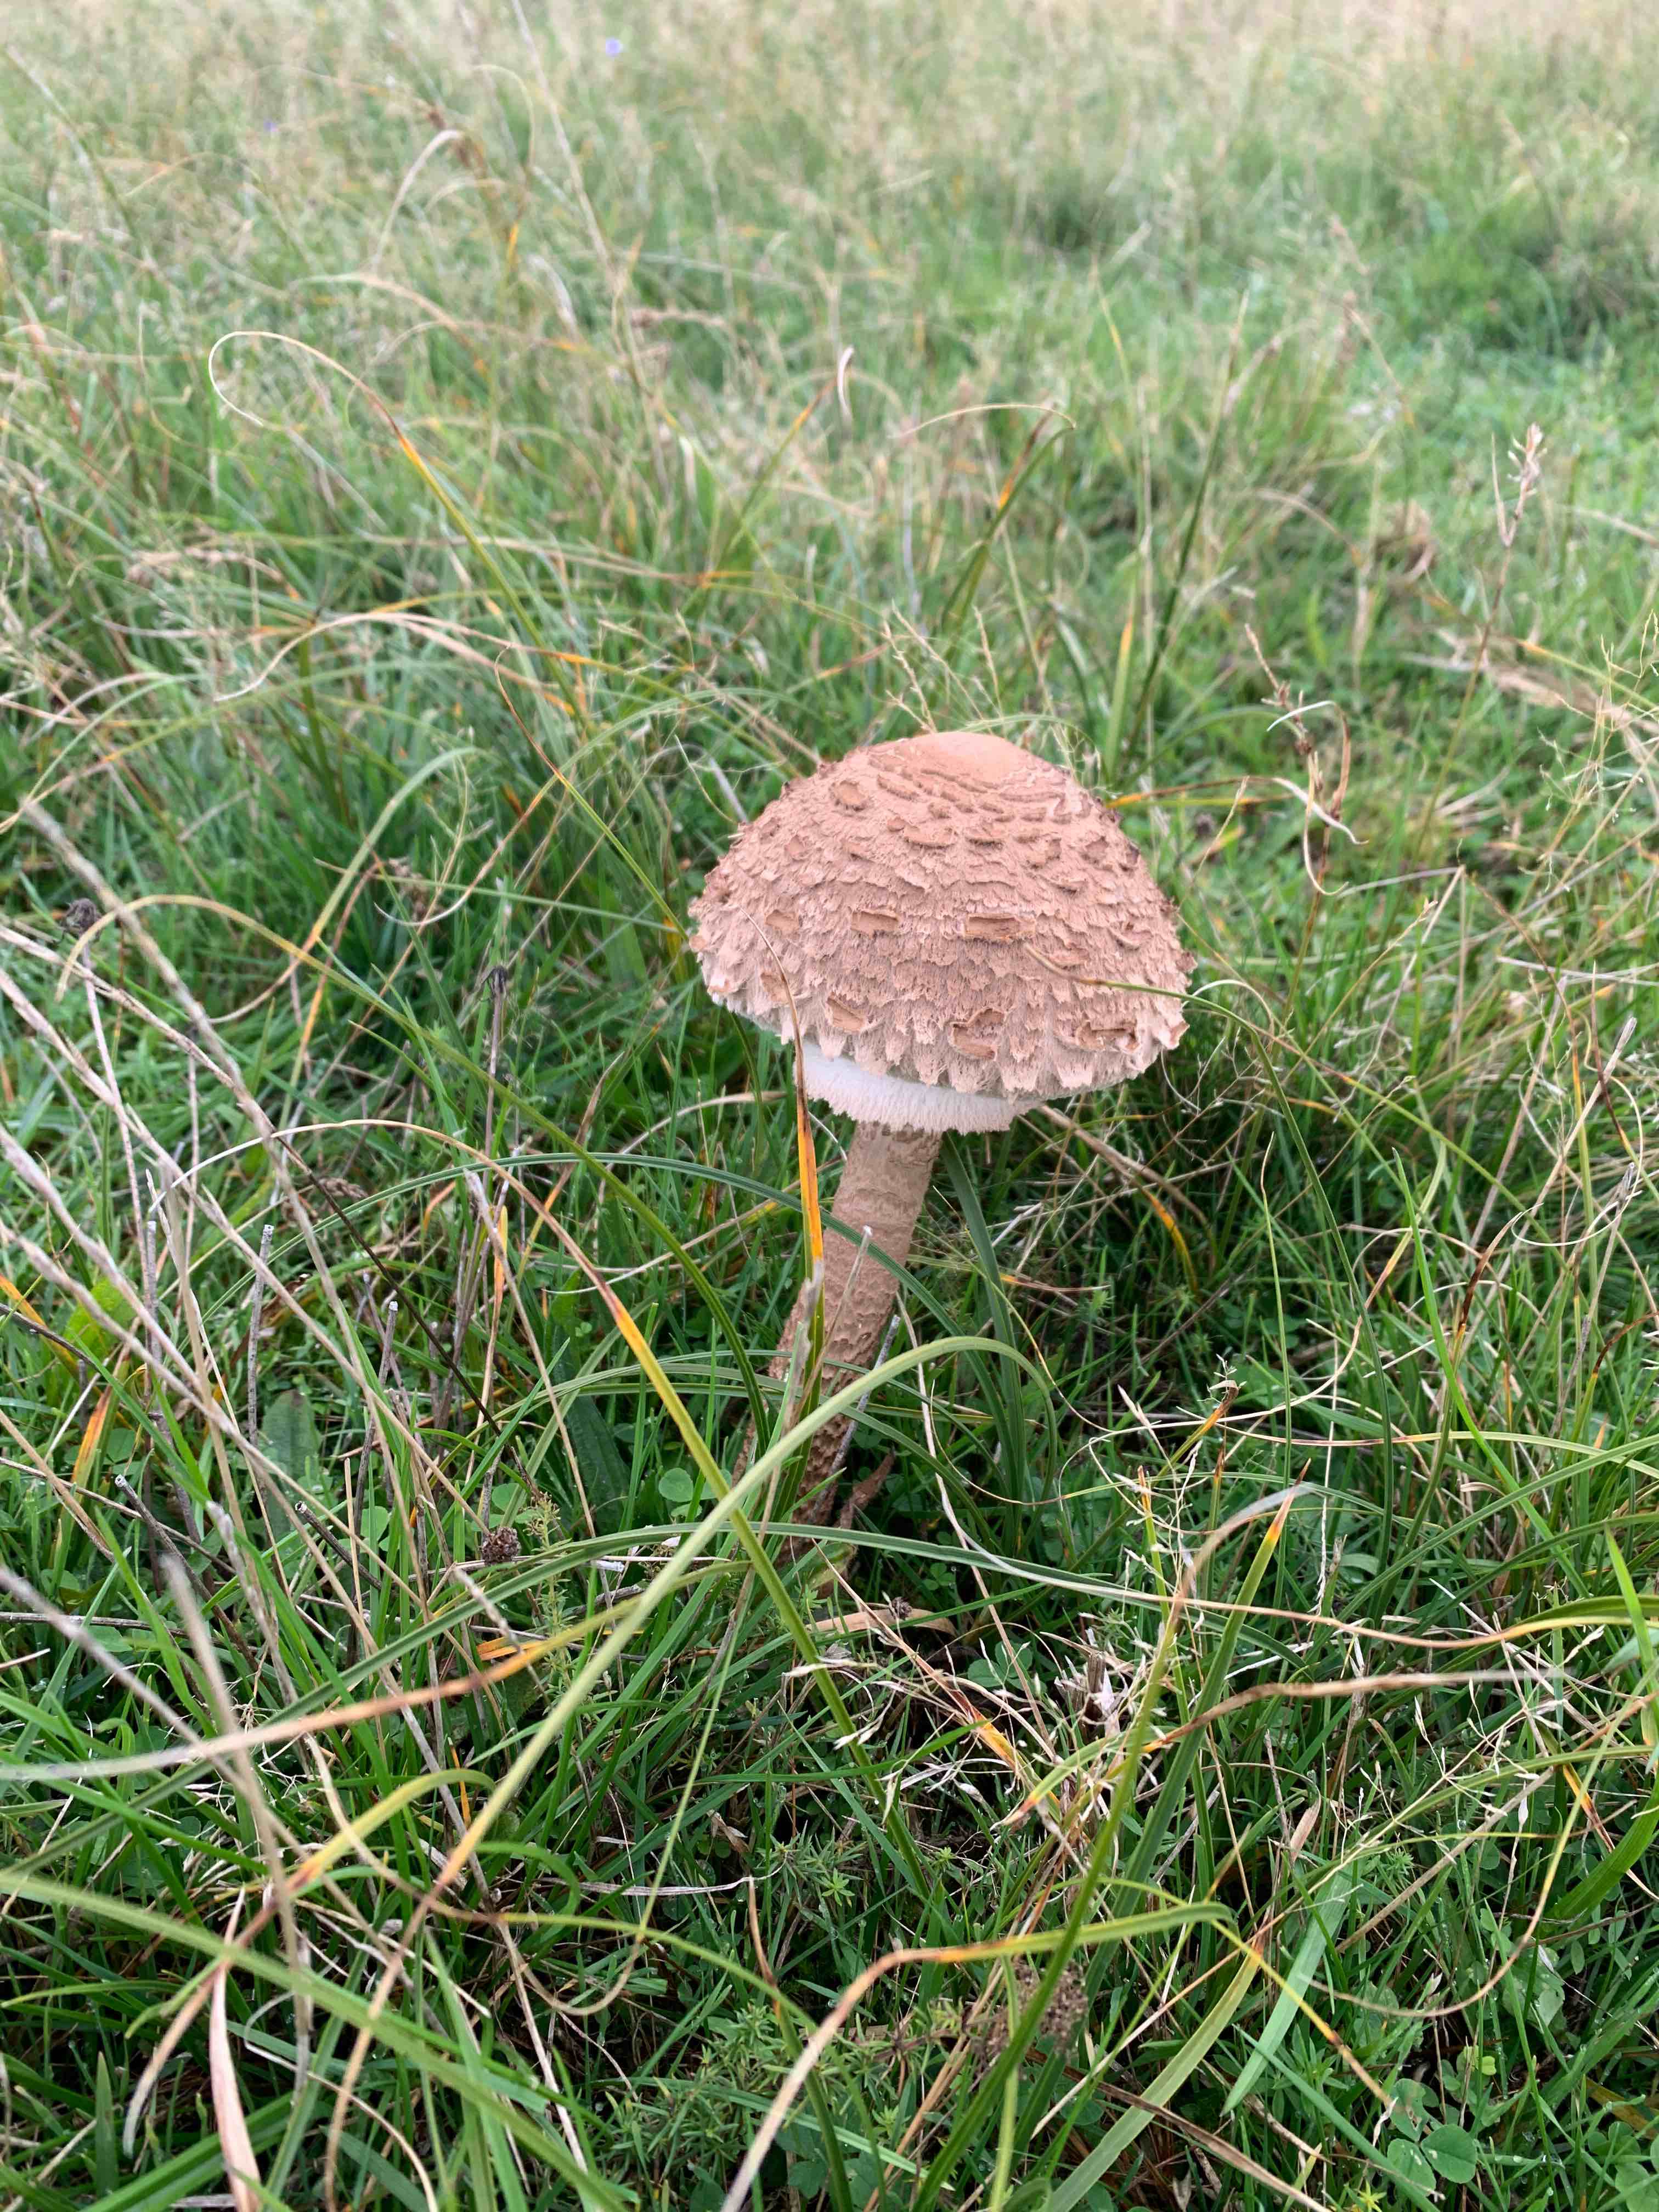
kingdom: Fungi
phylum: Basidiomycota
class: Agaricomycetes
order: Agaricales
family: Agaricaceae
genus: Macrolepiota
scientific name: Macrolepiota procera
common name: stor kæmpeparasolhat
